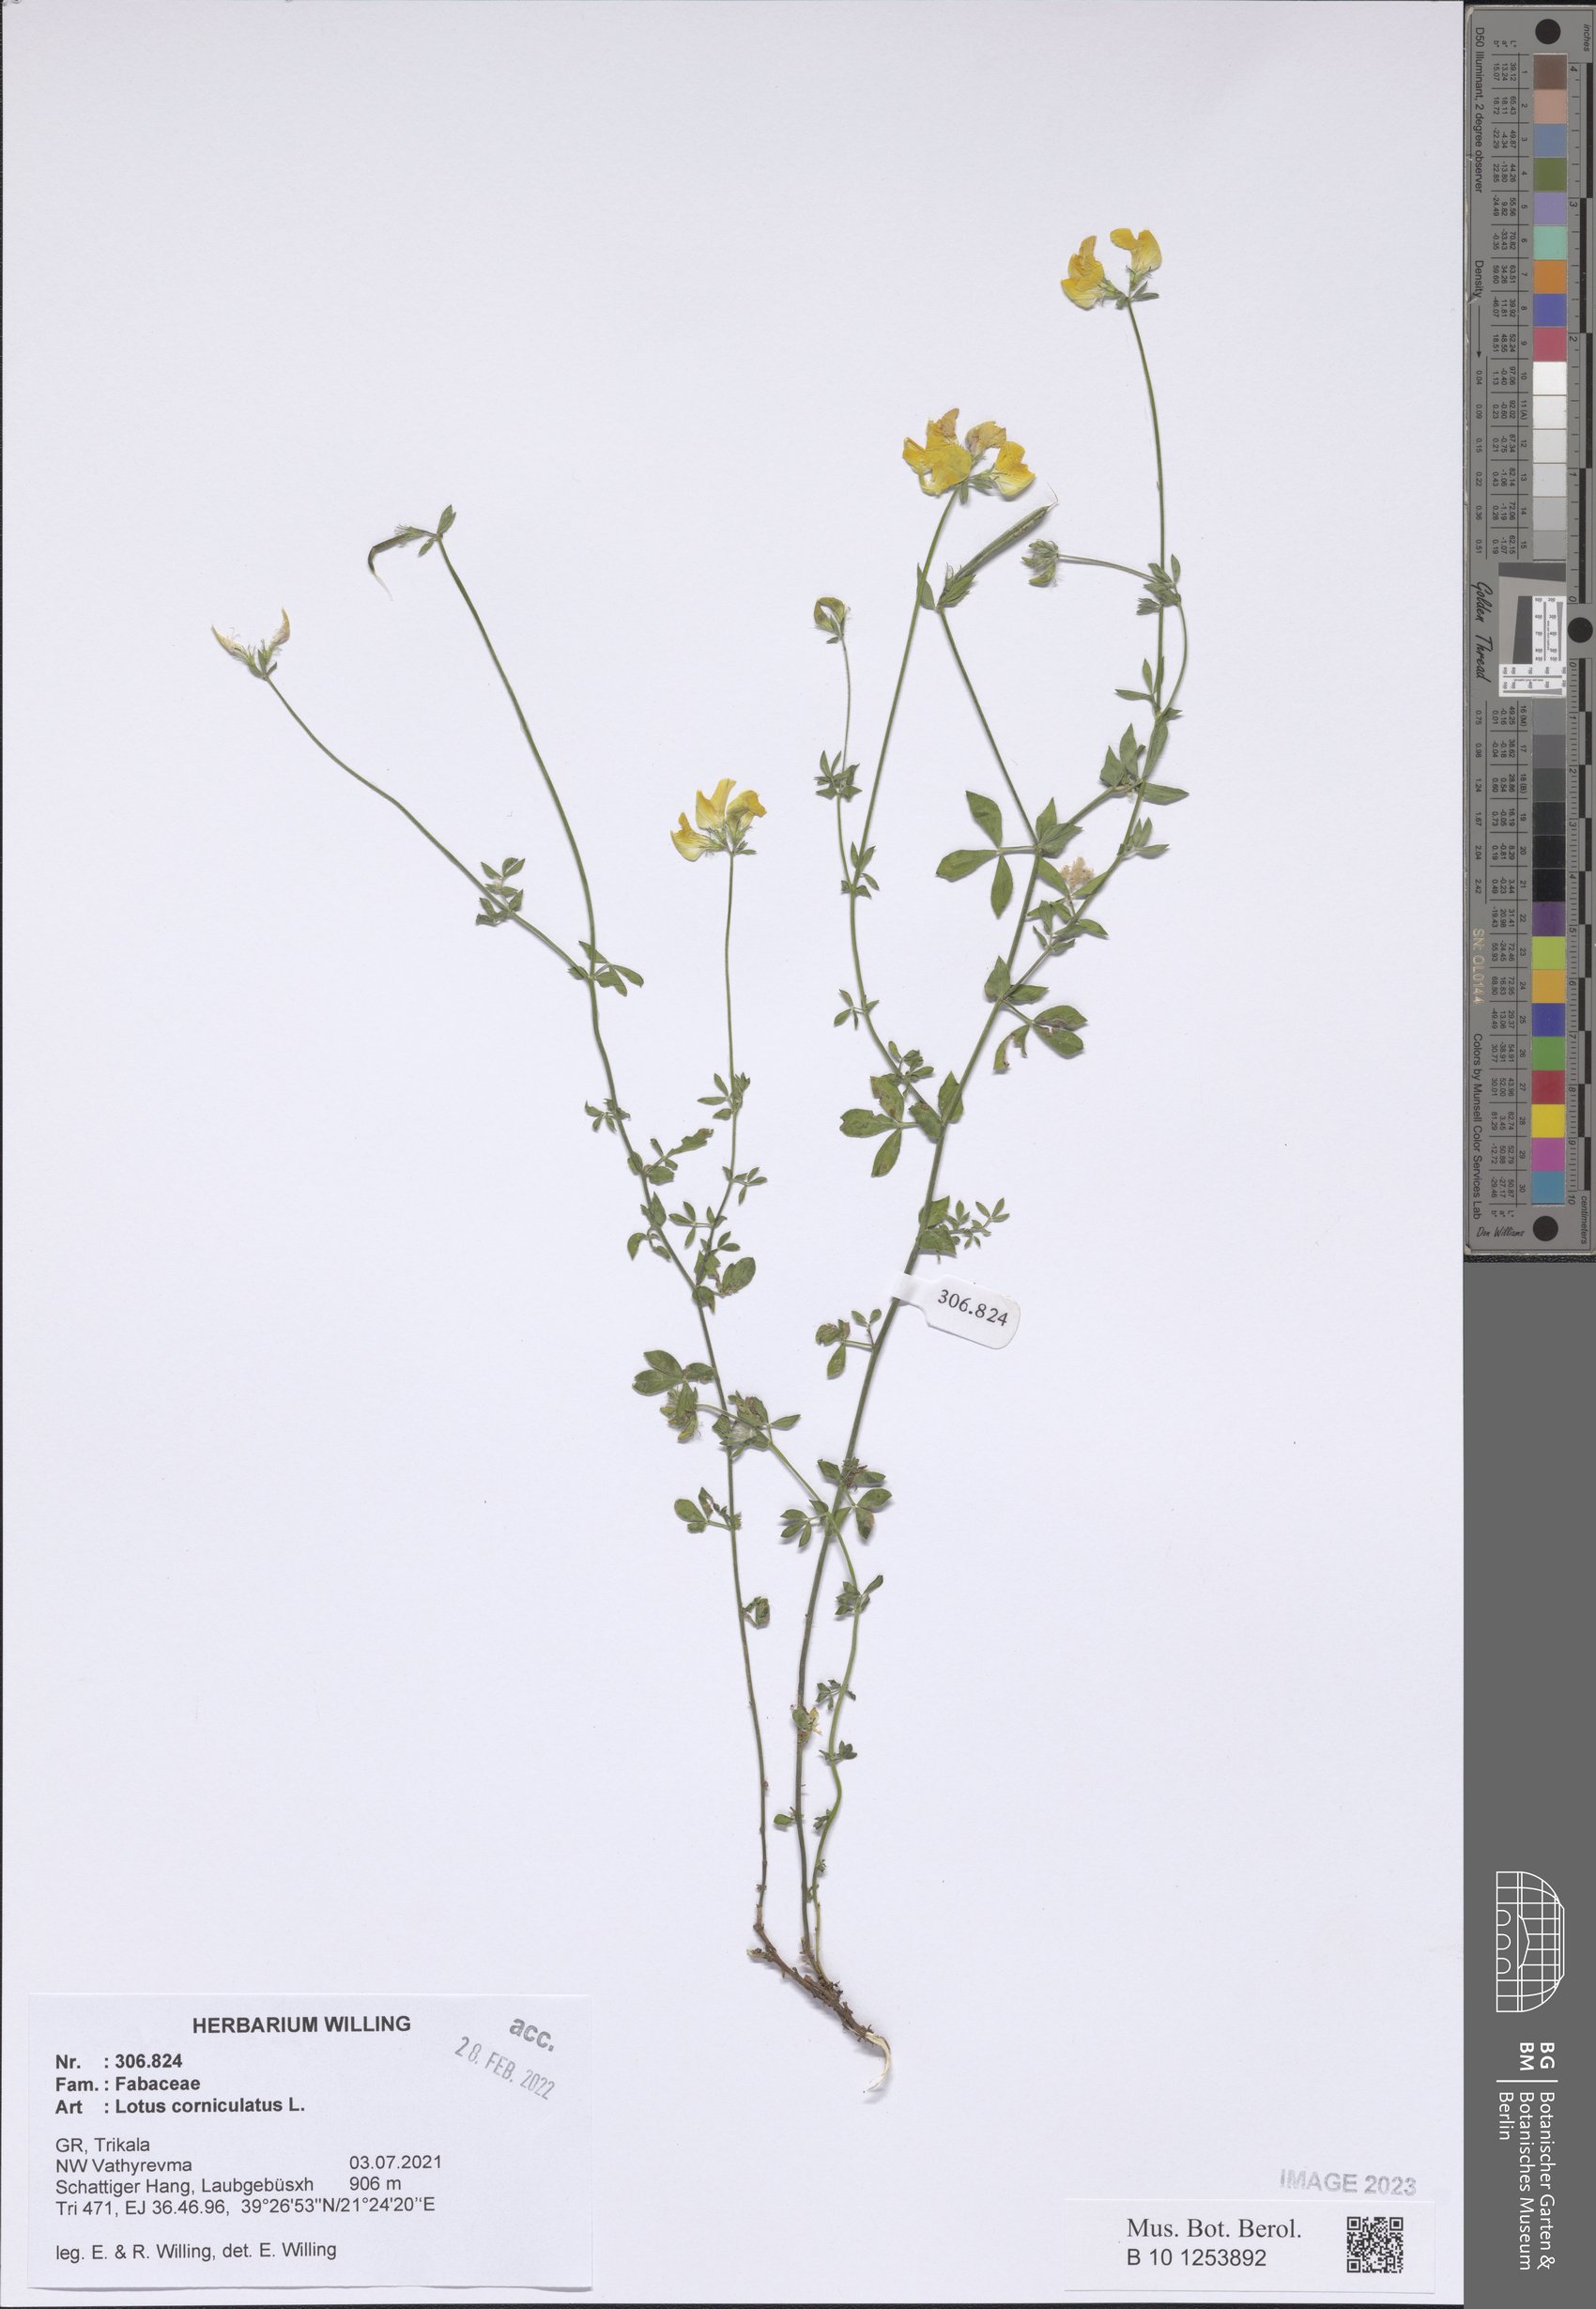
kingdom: Plantae
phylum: Tracheophyta
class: Magnoliopsida
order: Fabales
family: Fabaceae
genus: Lotus
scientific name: Lotus corniculatus
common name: Common bird's-foot-trefoil
